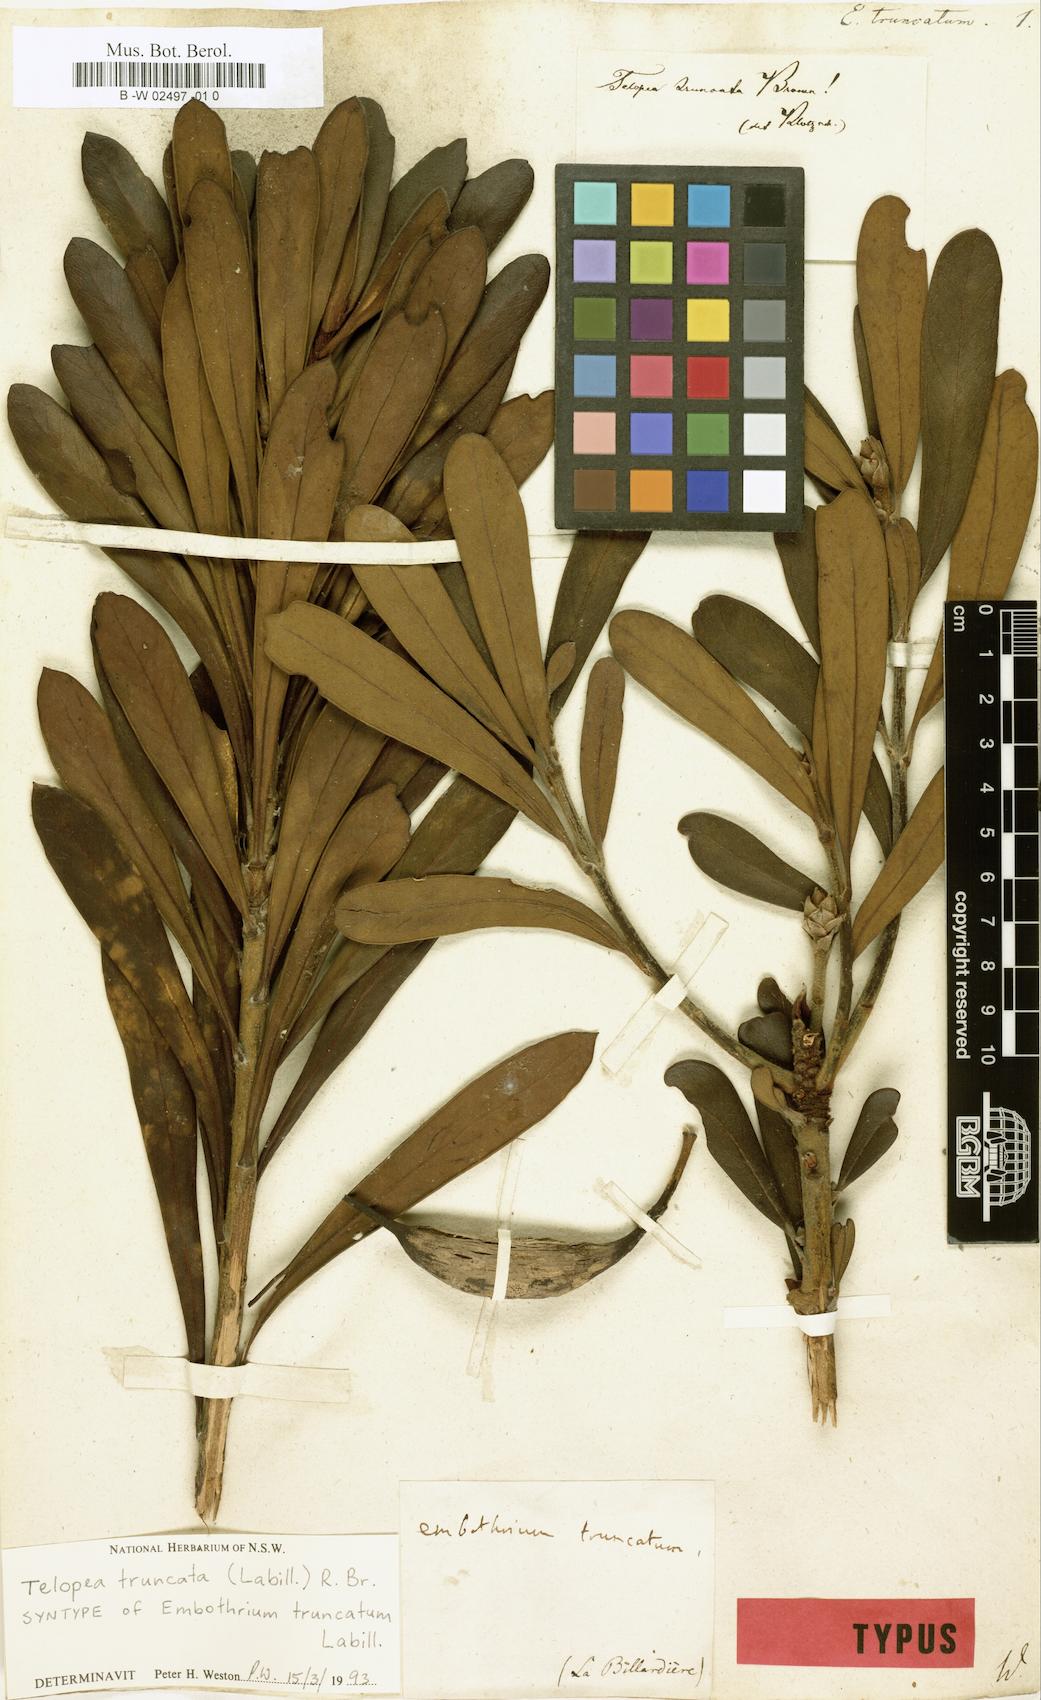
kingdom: Plantae
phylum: Tracheophyta
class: Magnoliopsida
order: Proteales
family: Proteaceae
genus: Telopea
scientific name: Telopea truncata
